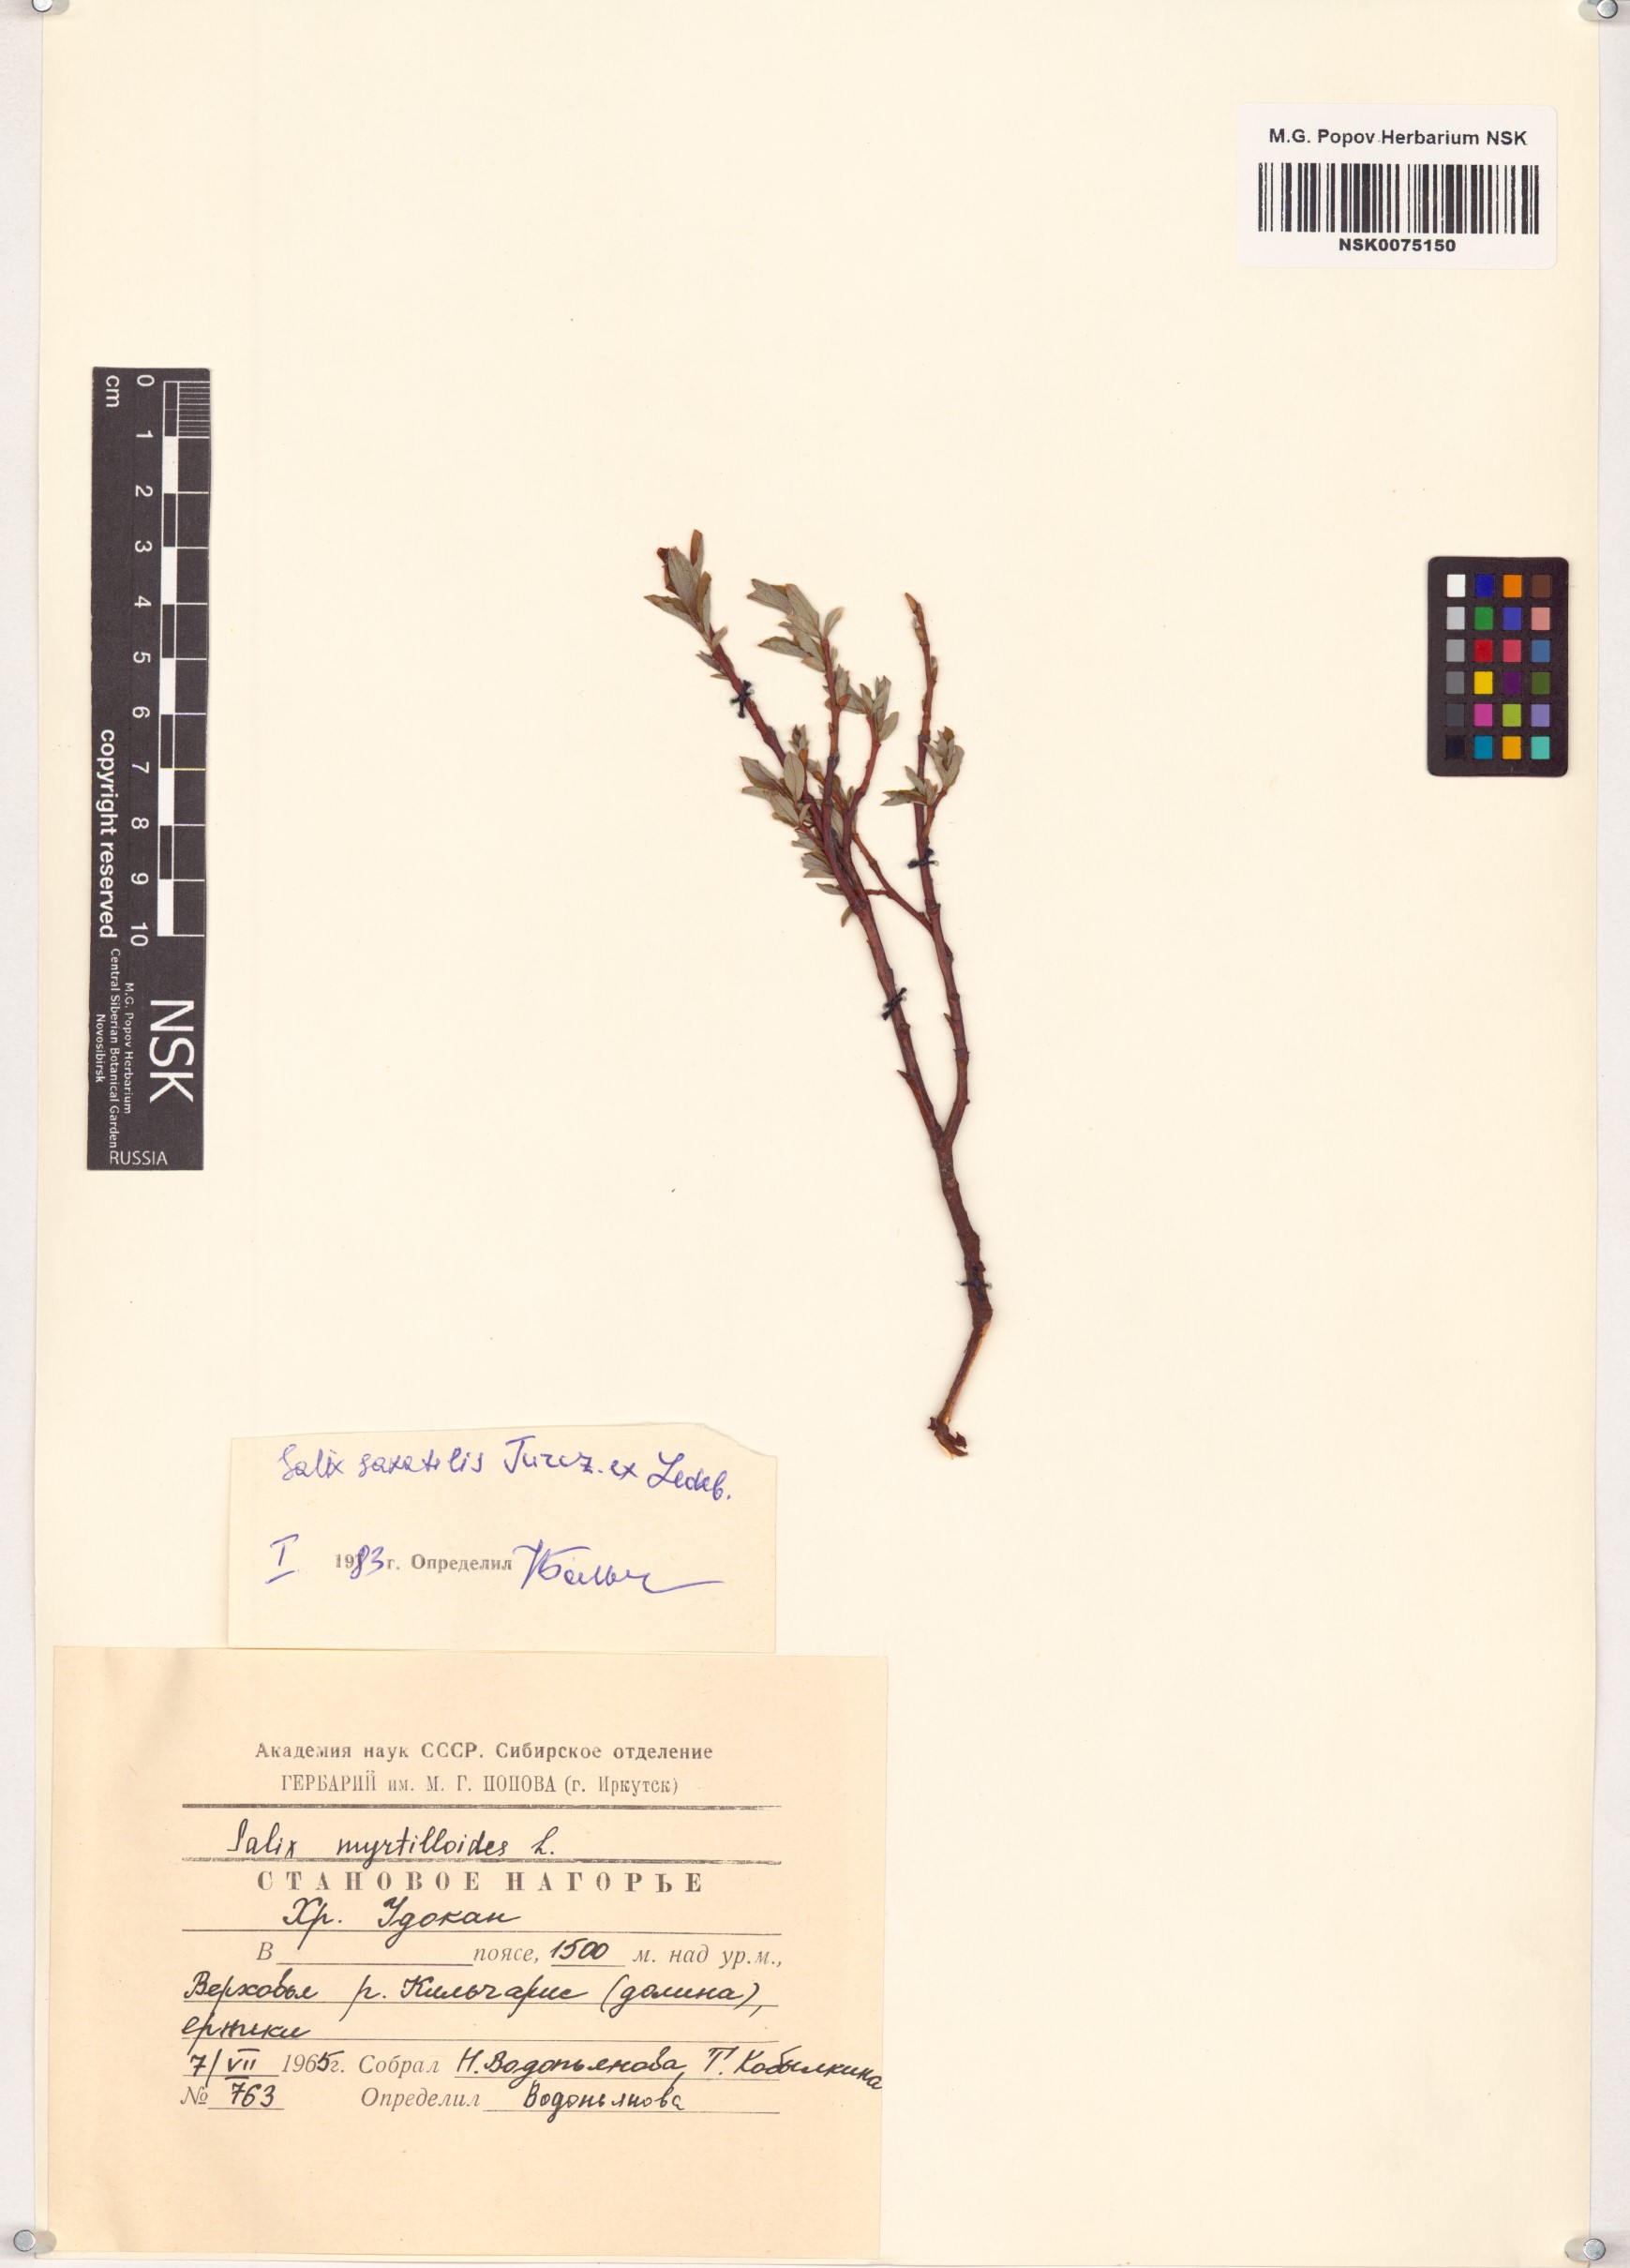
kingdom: Plantae
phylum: Tracheophyta
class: Magnoliopsida
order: Malpighiales
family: Salicaceae
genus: Salix
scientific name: Salix saxatilis
